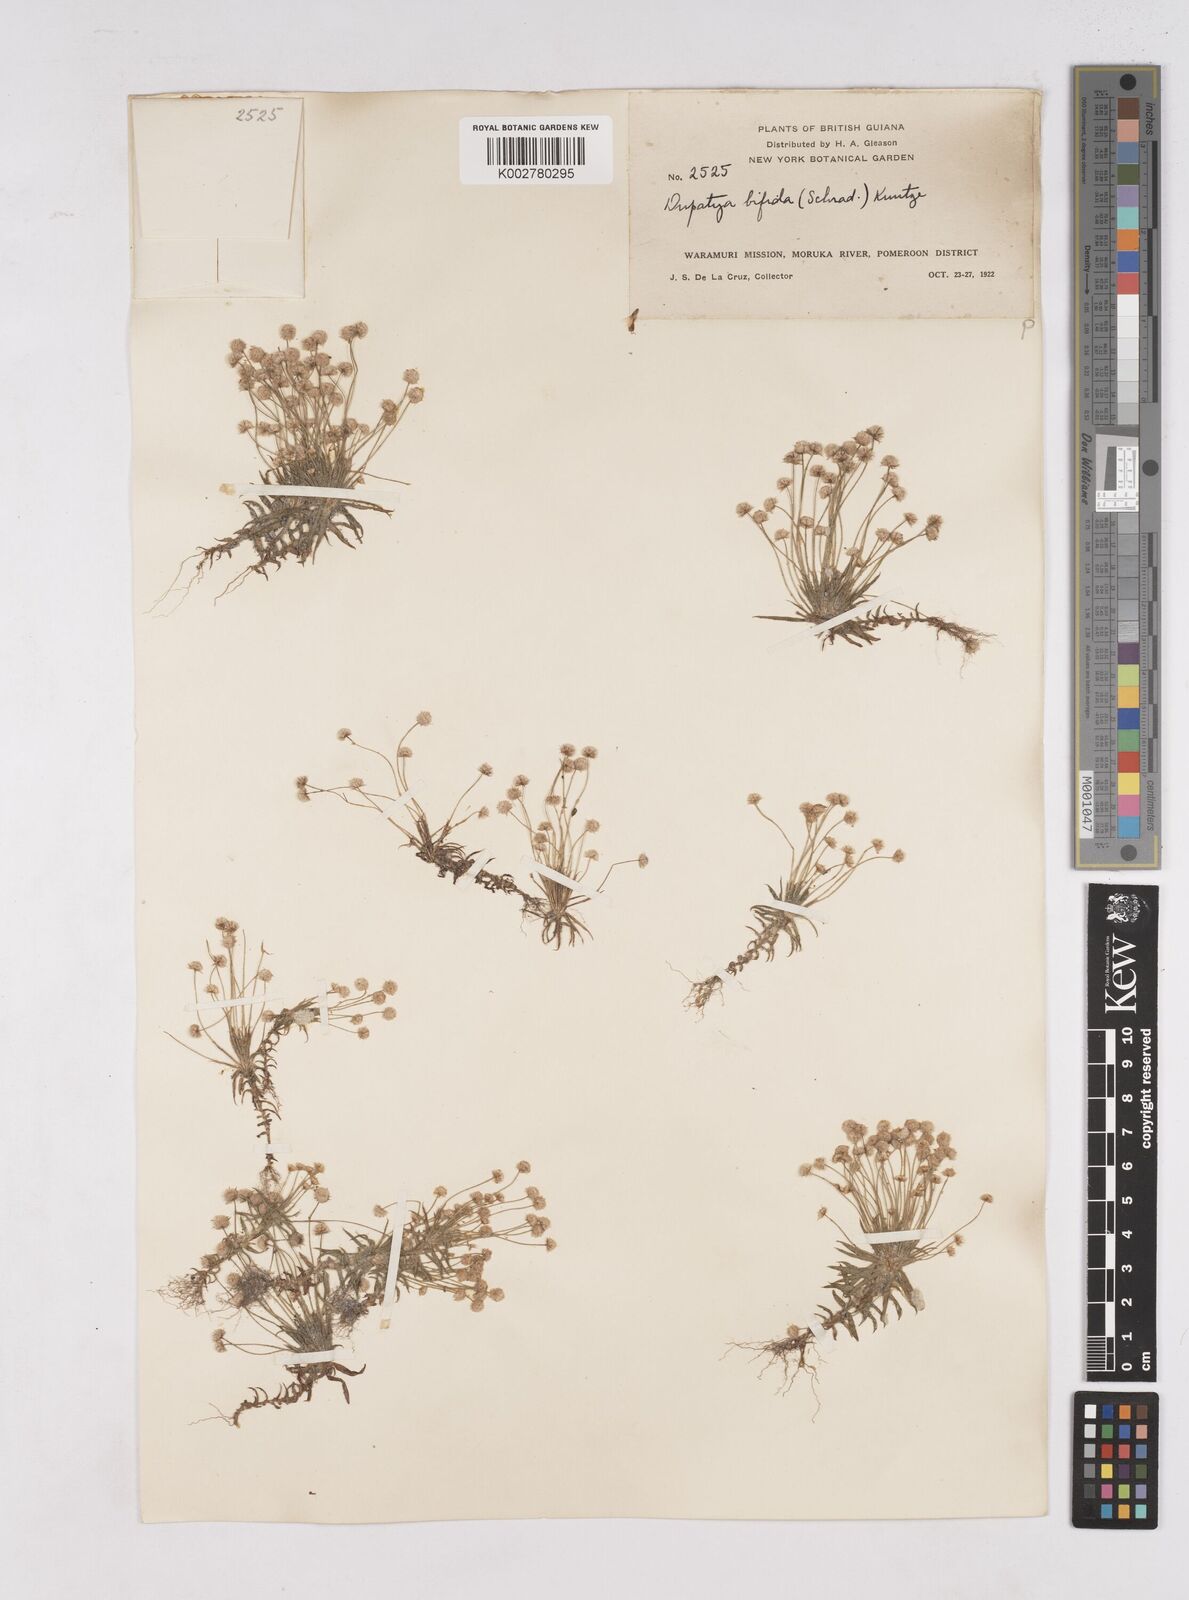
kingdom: Plantae
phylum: Tracheophyta
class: Liliopsida
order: Poales
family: Eriocaulaceae
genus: Paepalanthus
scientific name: Paepalanthus bifidus
